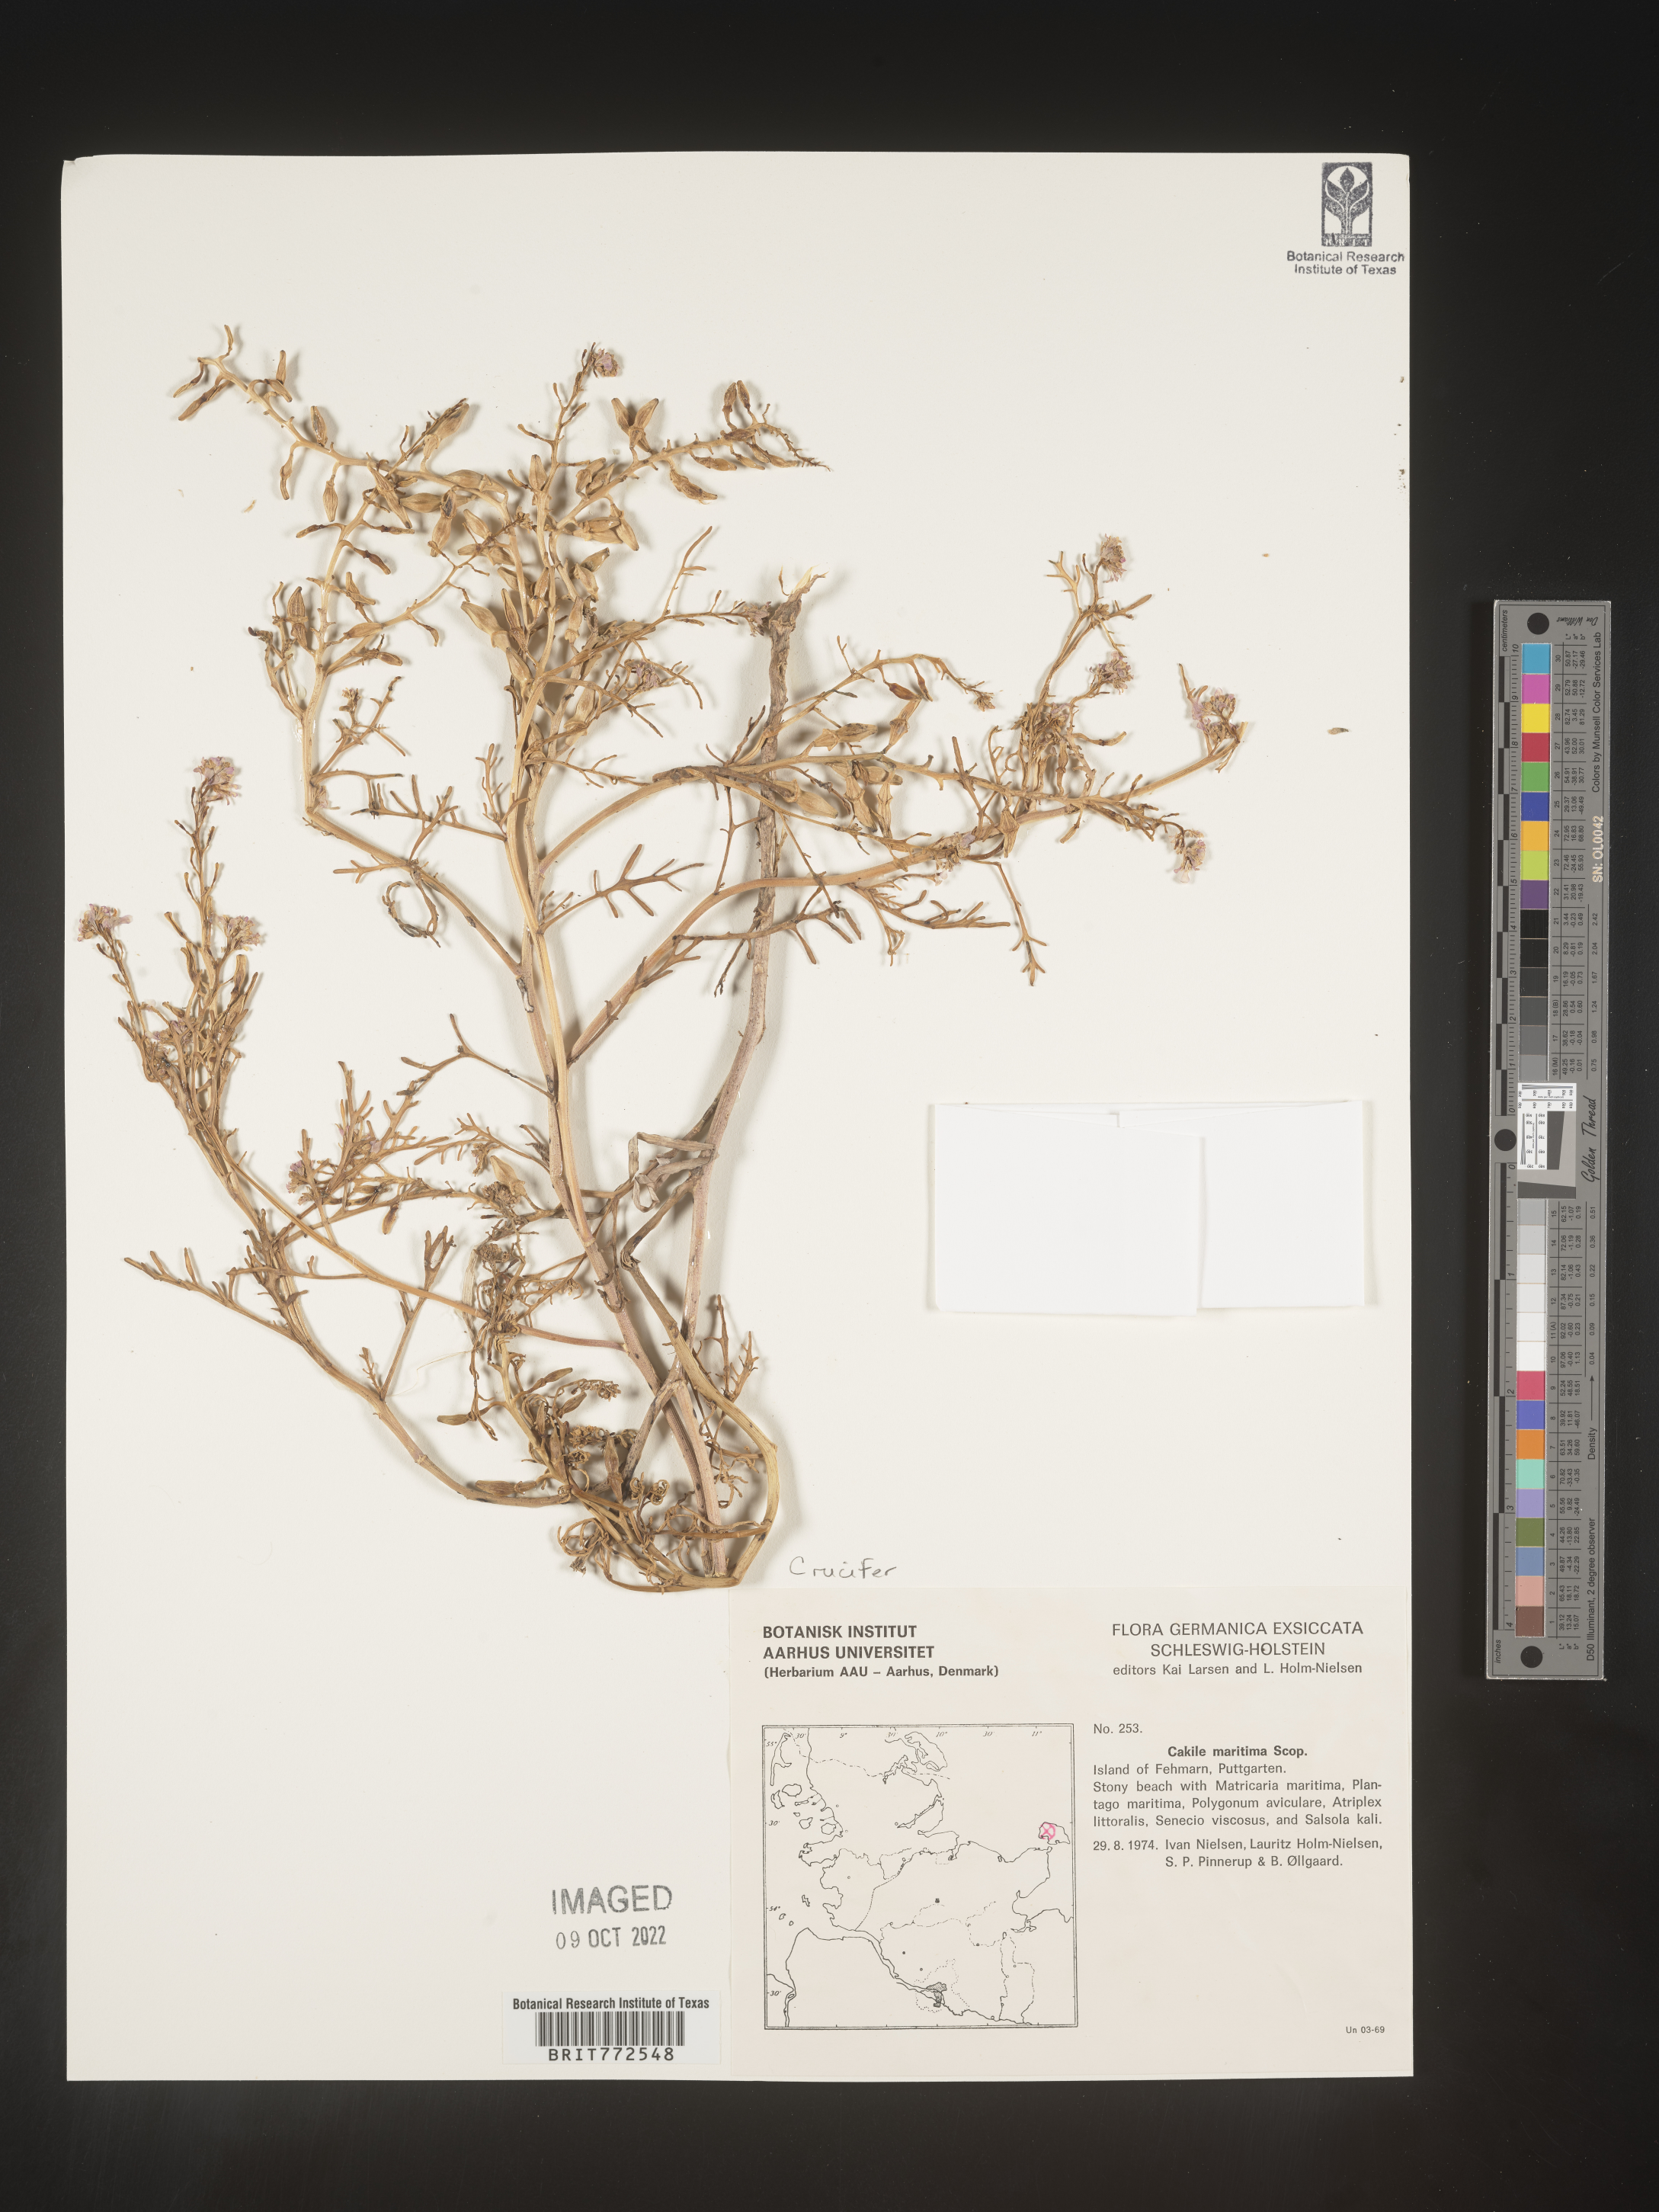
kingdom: Plantae
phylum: Tracheophyta
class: Magnoliopsida
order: Brassicales
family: Brassicaceae
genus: Cakile
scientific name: Cakile
